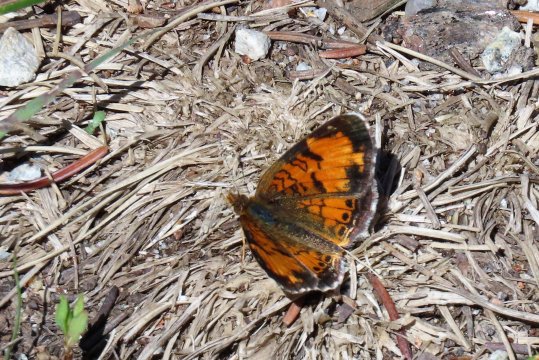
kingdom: Animalia
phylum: Arthropoda
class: Insecta
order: Lepidoptera
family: Nymphalidae
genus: Phyciodes
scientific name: Phyciodes tharos
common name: Northern Crescent
